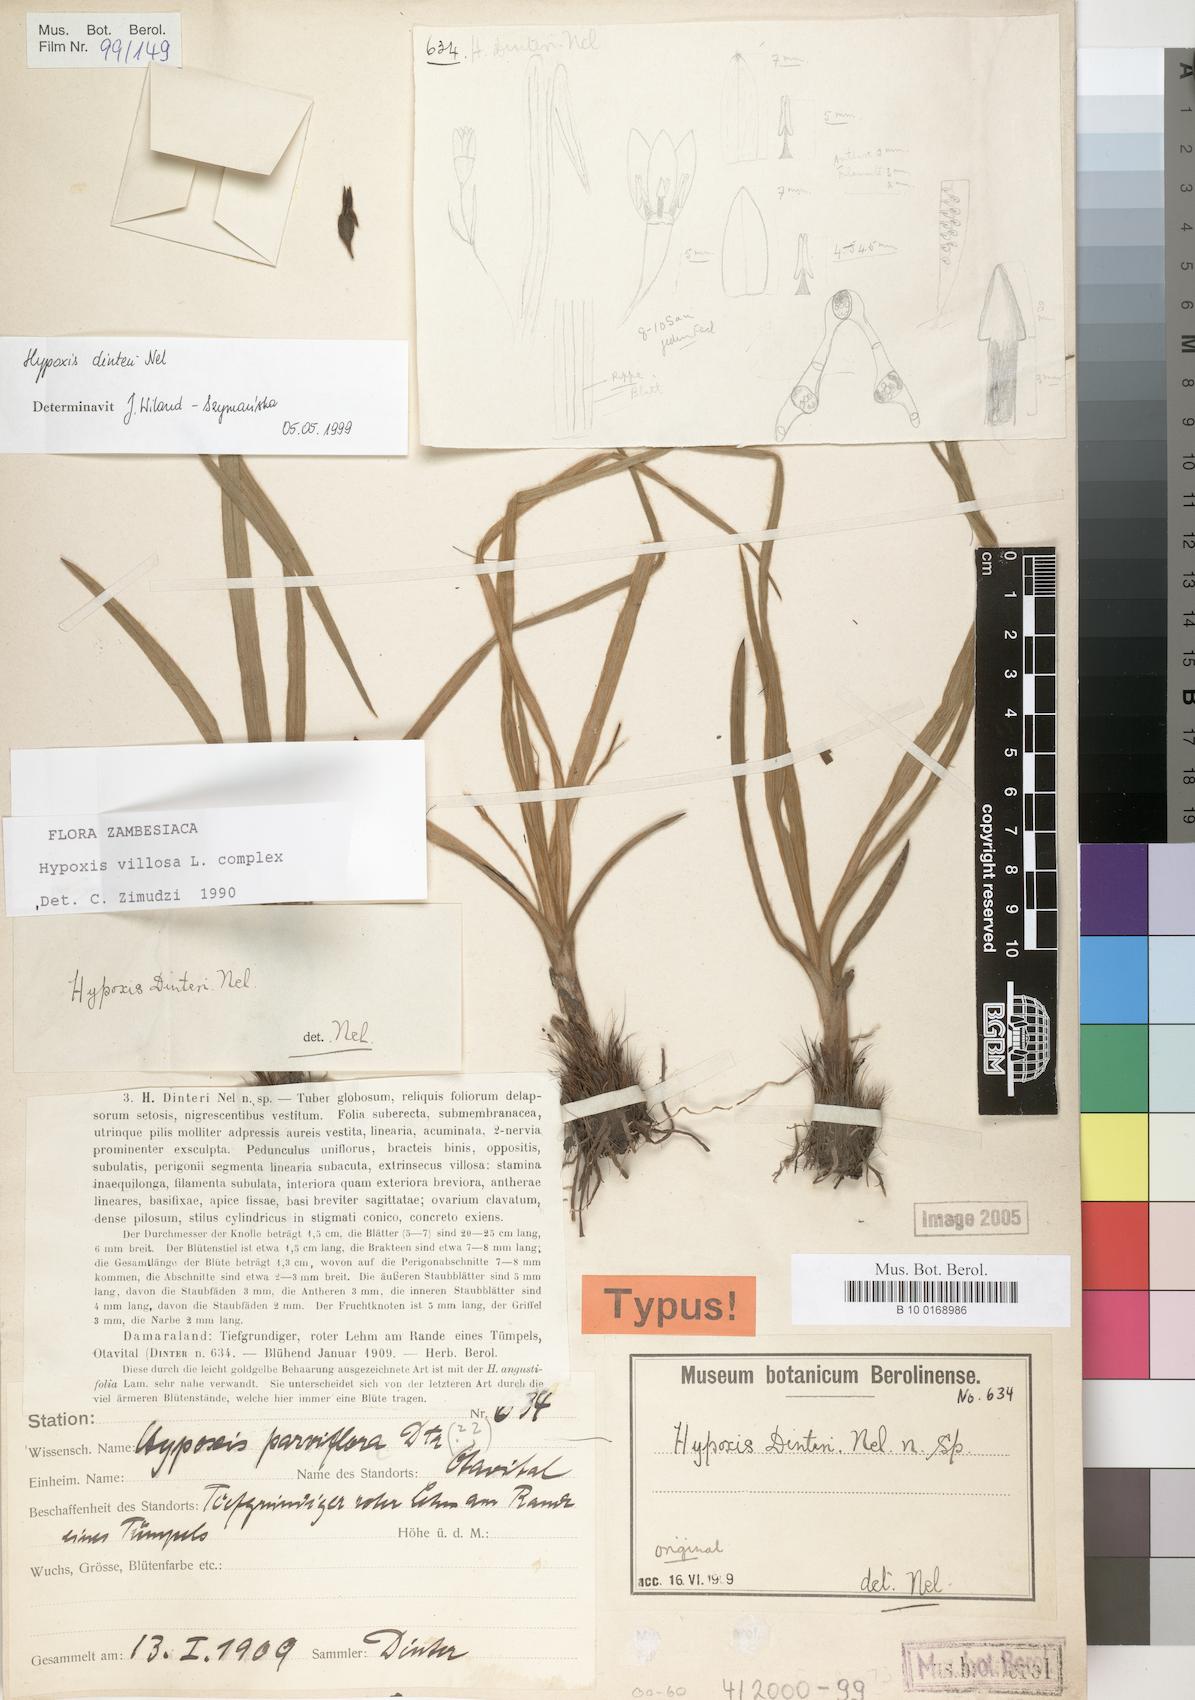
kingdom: Plantae
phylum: Tracheophyta
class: Liliopsida
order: Asparagales
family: Hypoxidaceae
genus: Hypoxis
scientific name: Hypoxis dinteri
